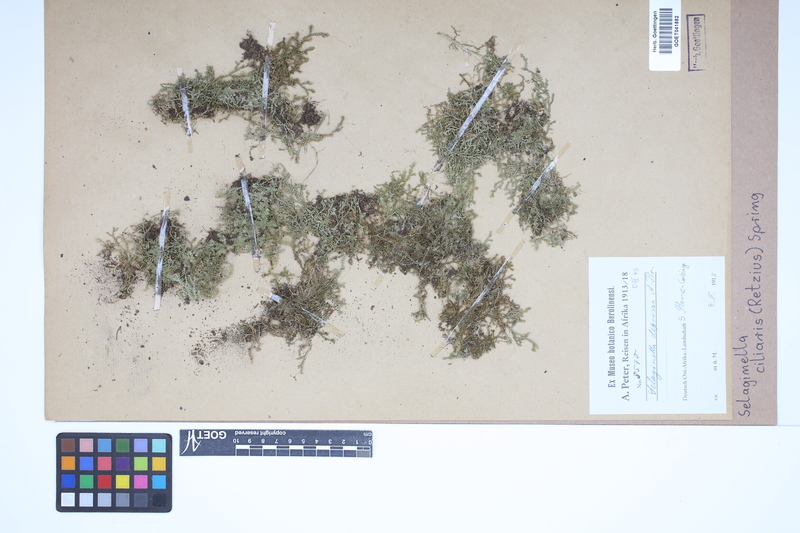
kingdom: Plantae
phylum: Tracheophyta
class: Lycopodiopsida
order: Selaginellales
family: Selaginellaceae
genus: Selaginella
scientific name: Selaginella ciliaris
